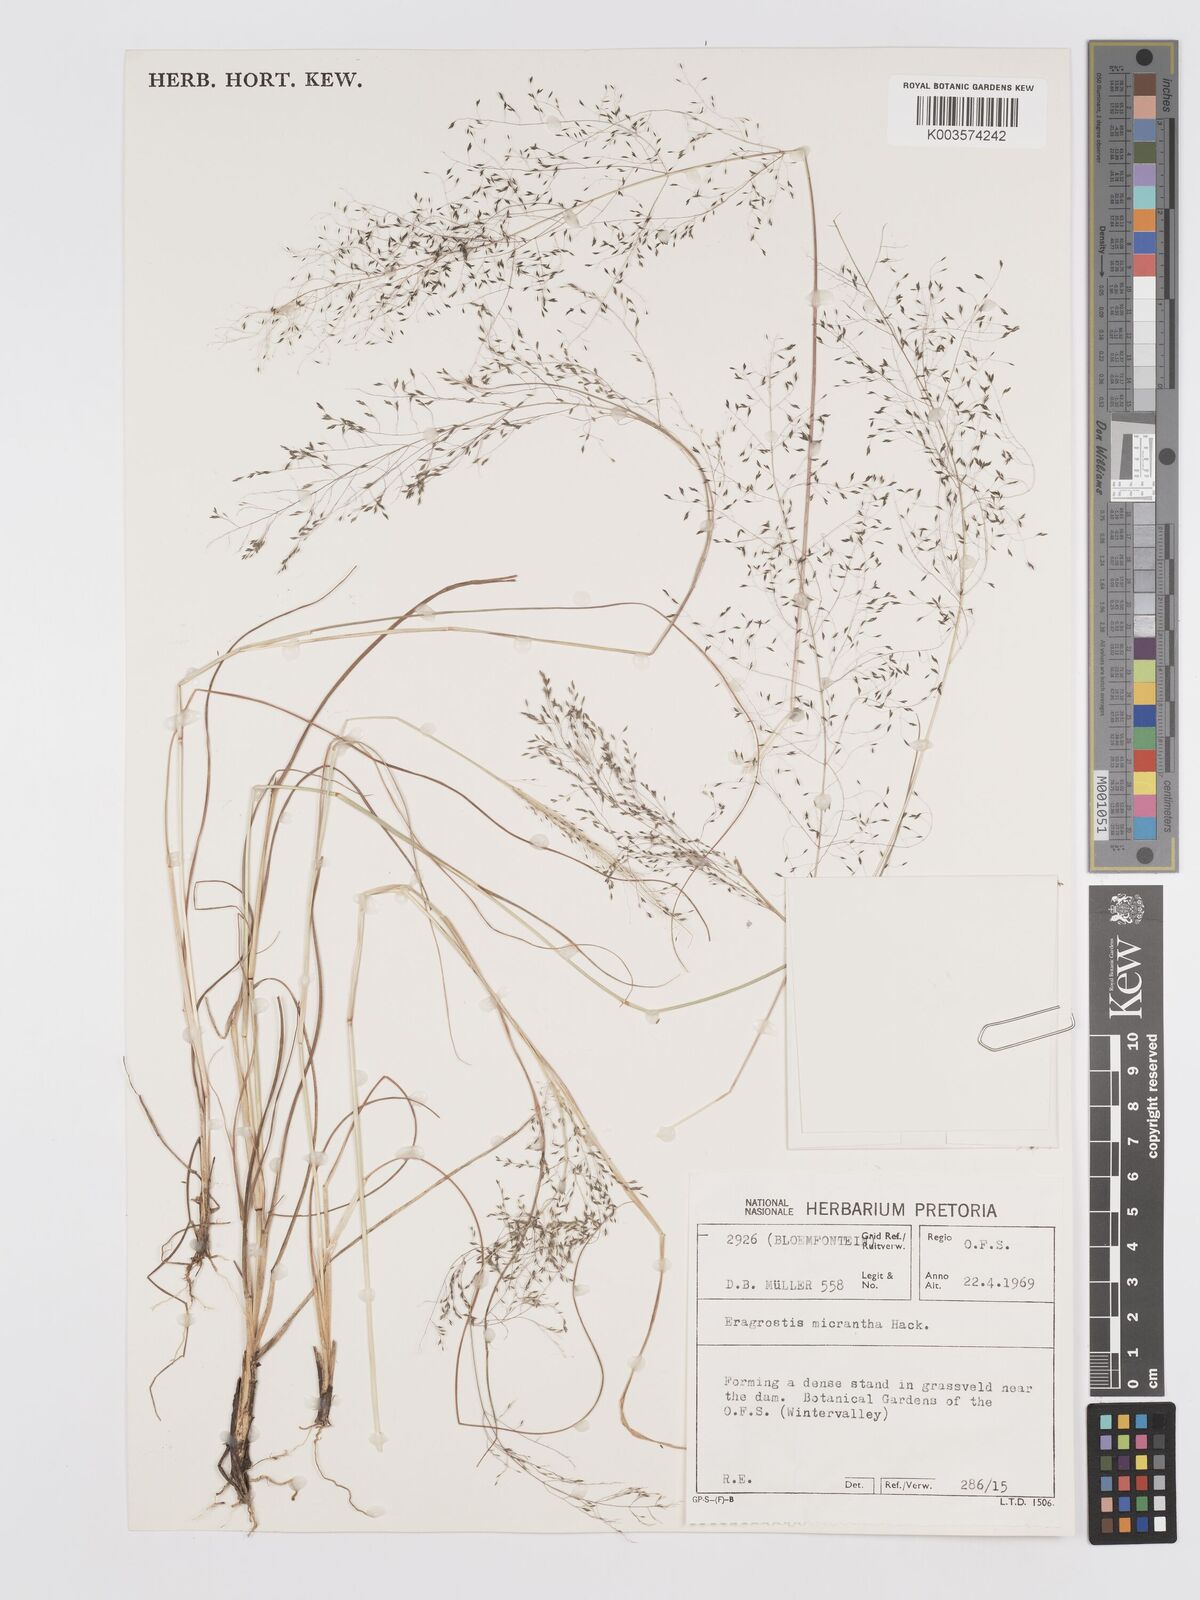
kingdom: Plantae
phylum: Tracheophyta
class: Liliopsida
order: Poales
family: Poaceae
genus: Eragrostis
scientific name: Eragrostis micrantha
